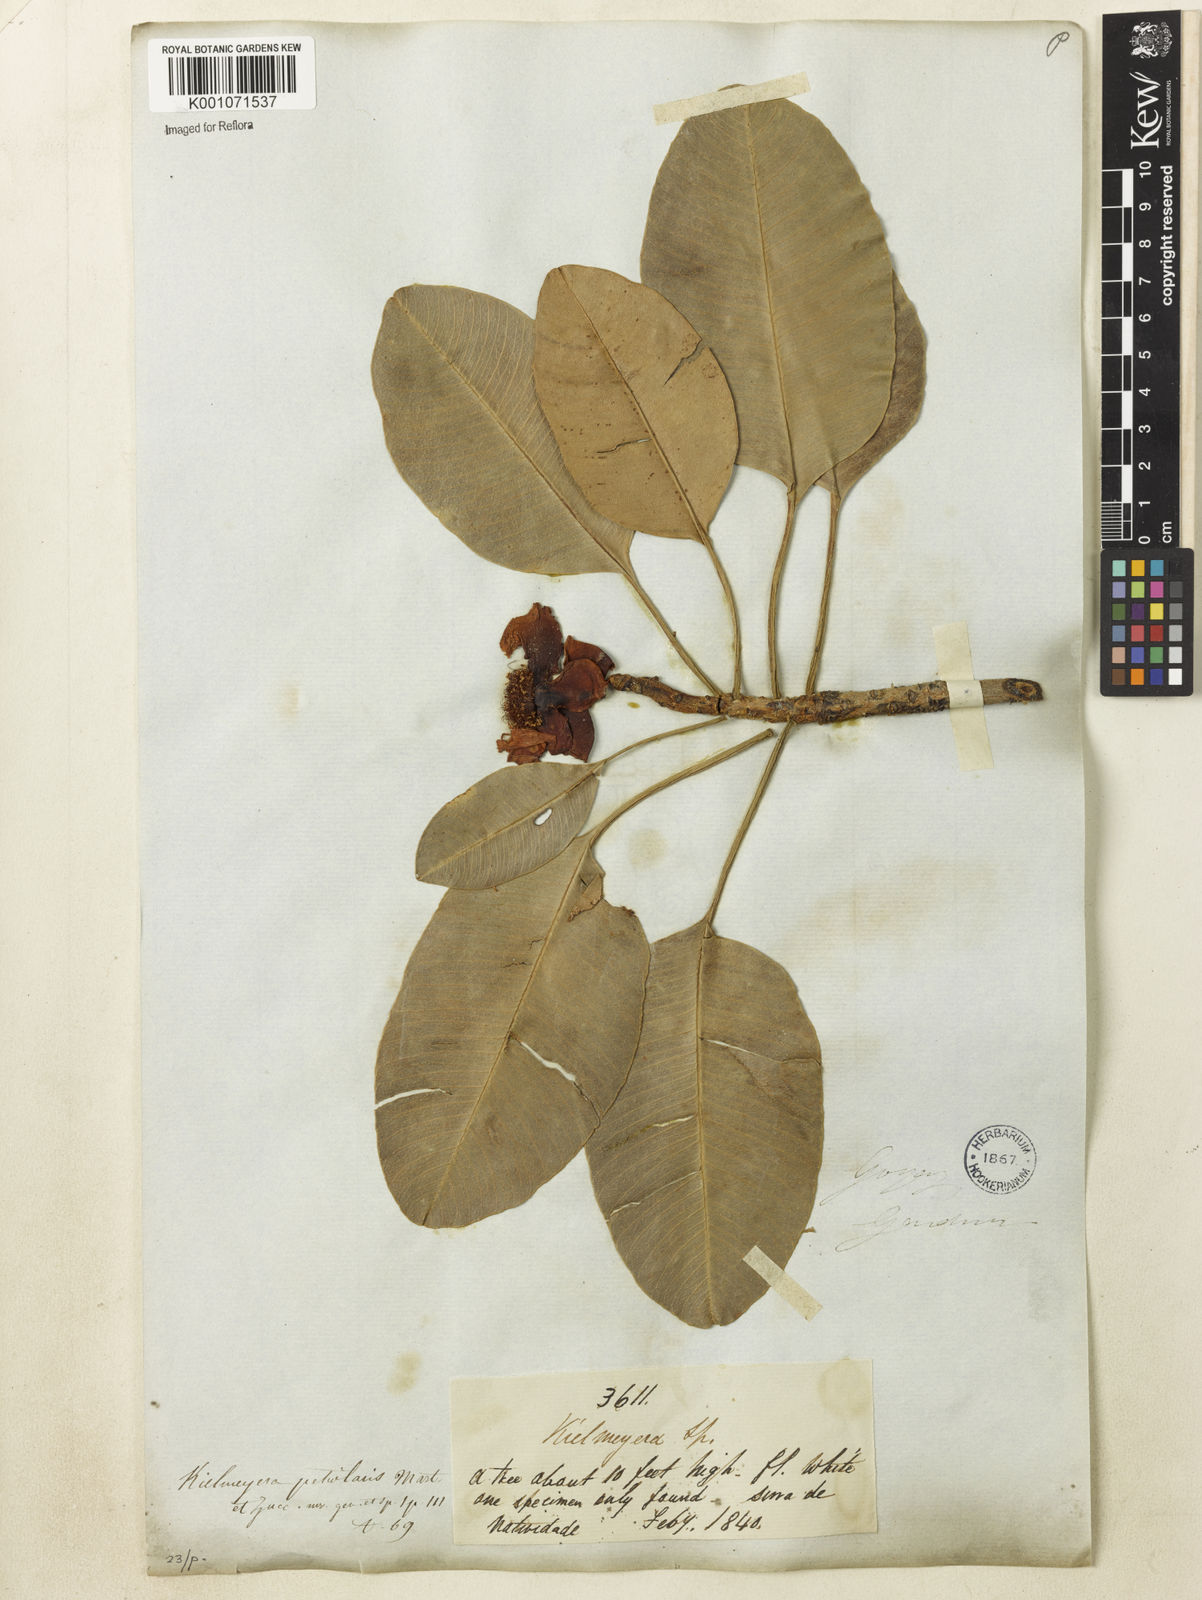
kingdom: Plantae
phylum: Tracheophyta
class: Magnoliopsida
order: Malpighiales
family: Calophyllaceae
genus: Kielmeyera
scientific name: Kielmeyera petiolaris
